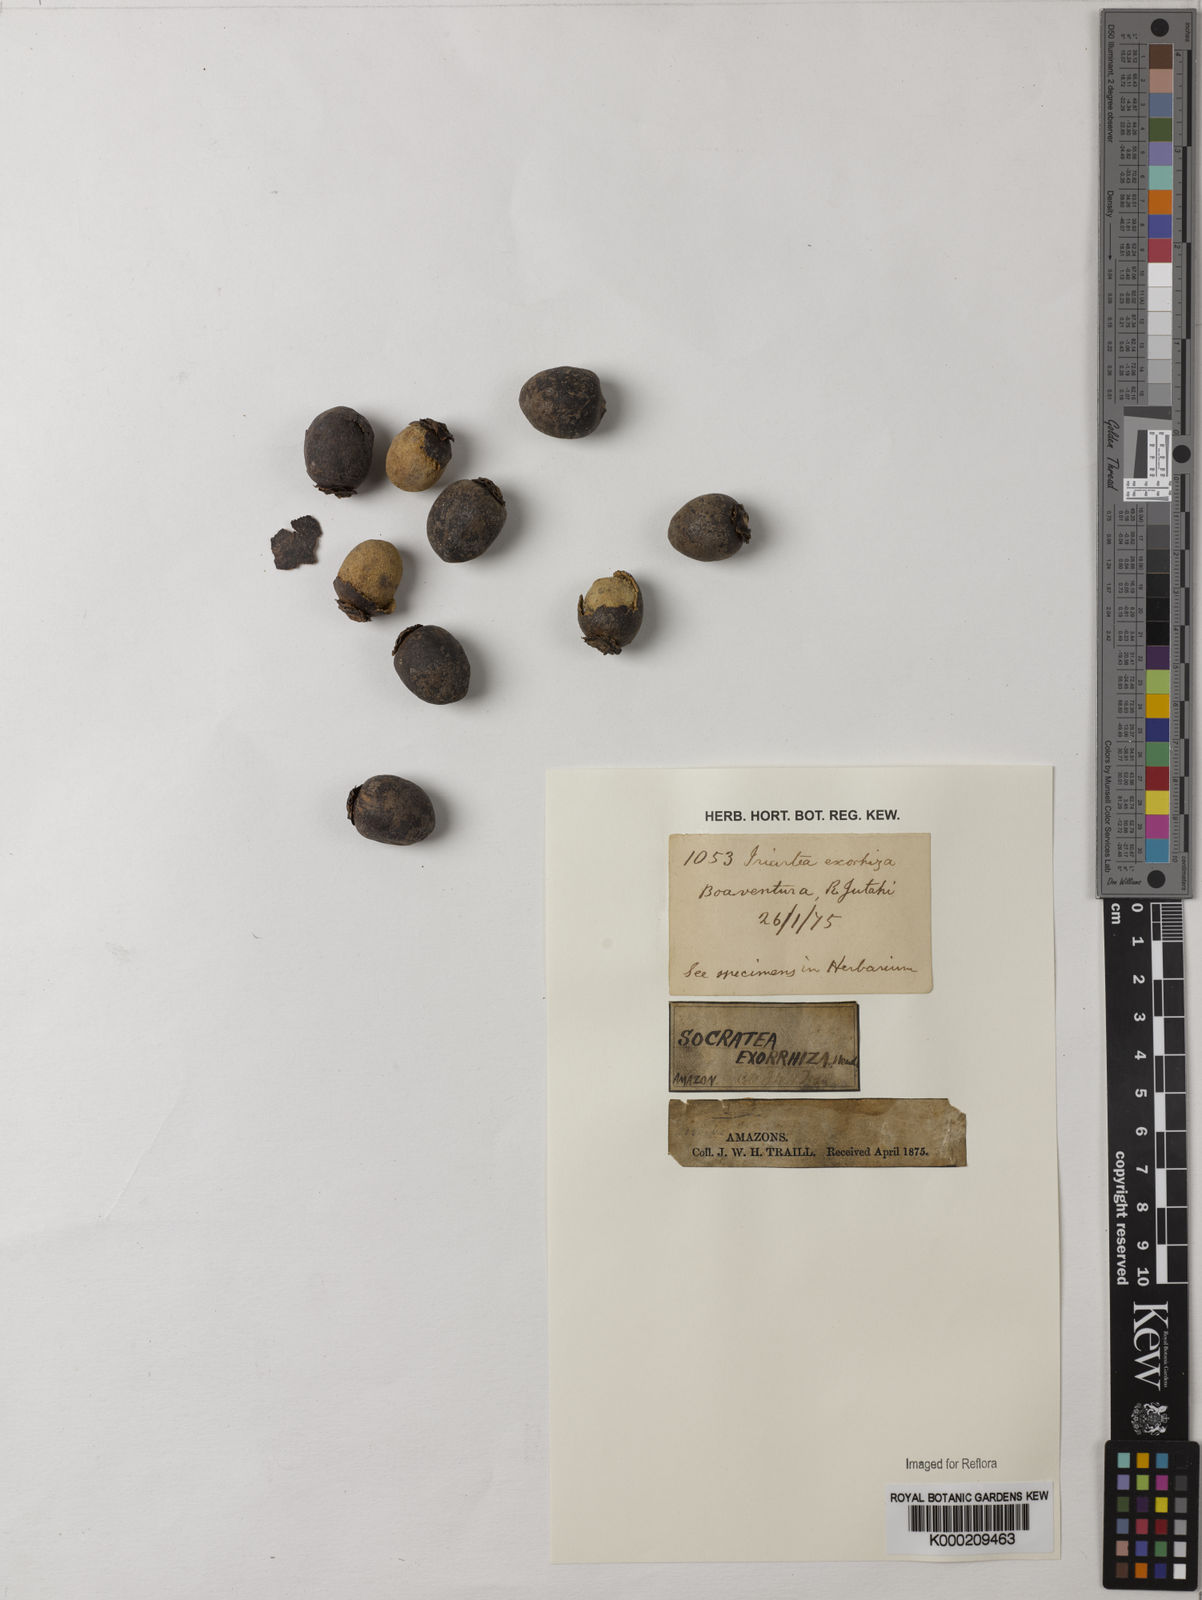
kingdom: Plantae
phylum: Tracheophyta
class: Liliopsida
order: Arecales
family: Arecaceae
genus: Socratea
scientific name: Socratea exorrhiza
